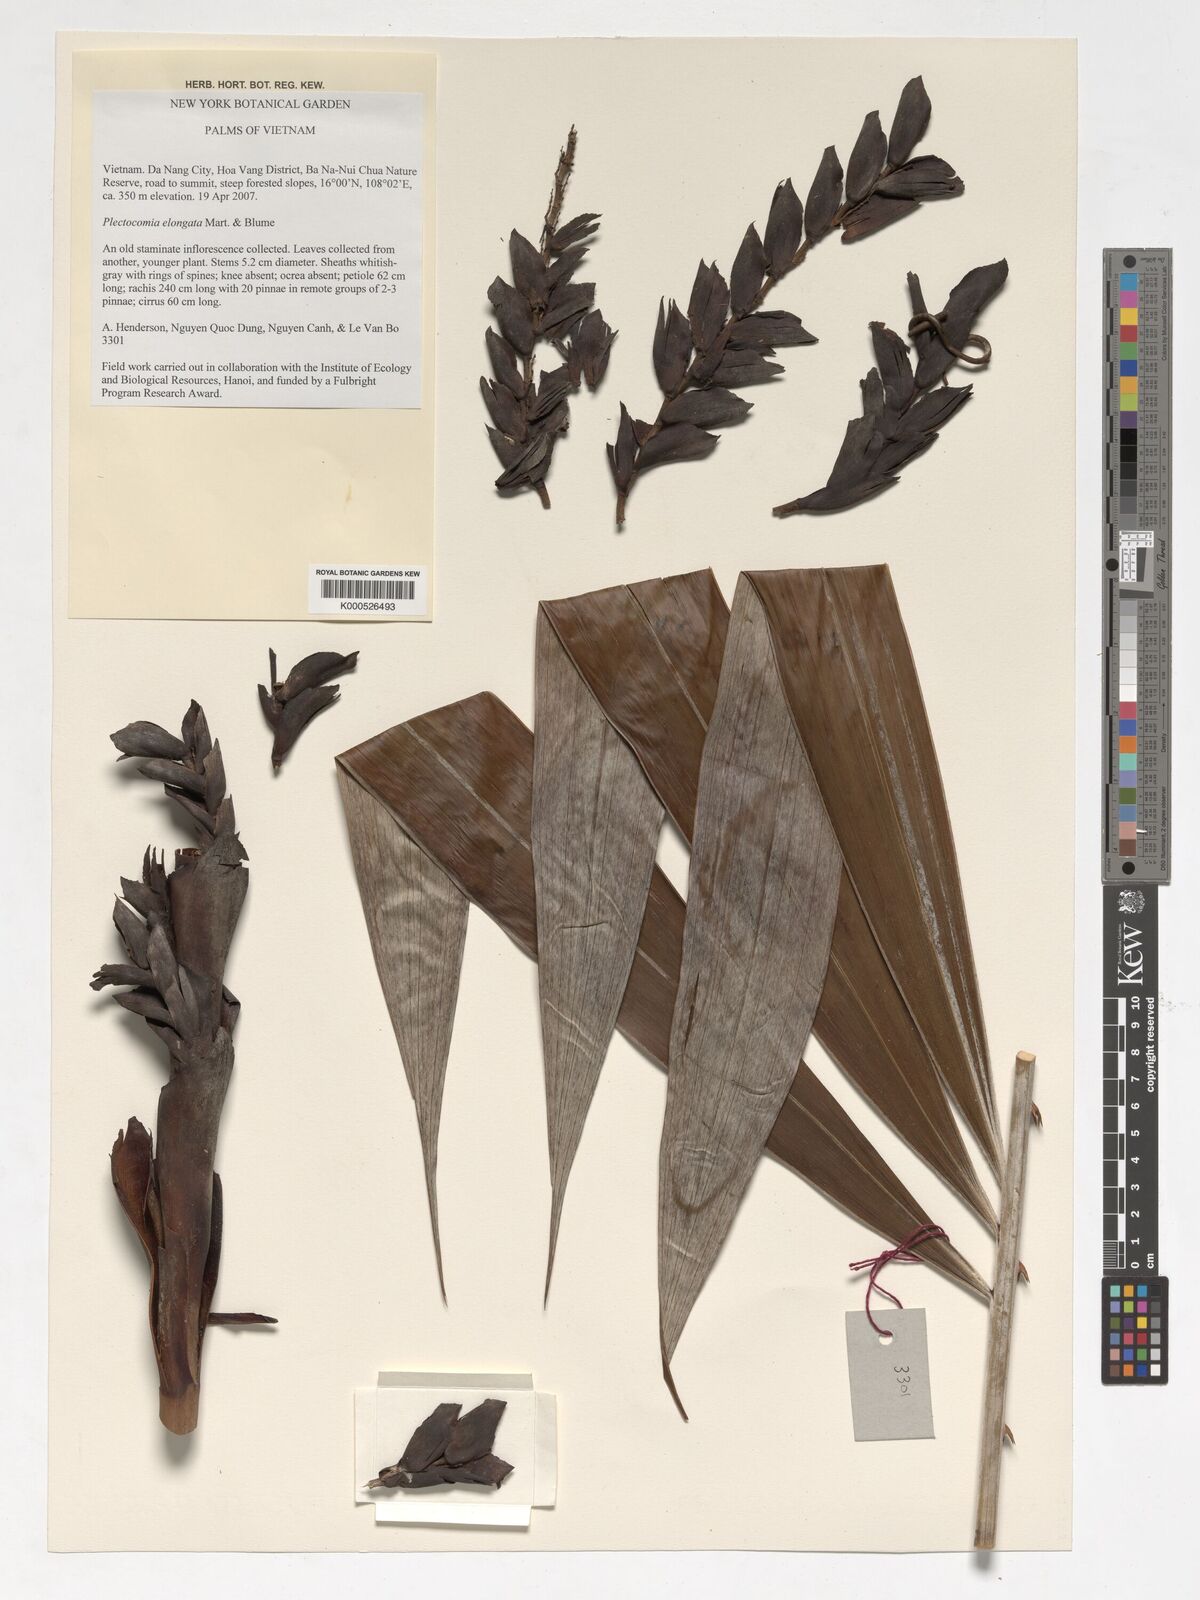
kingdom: Plantae
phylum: Tracheophyta
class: Liliopsida
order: Arecales
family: Arecaceae
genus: Plectocomia
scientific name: Plectocomia elongata
